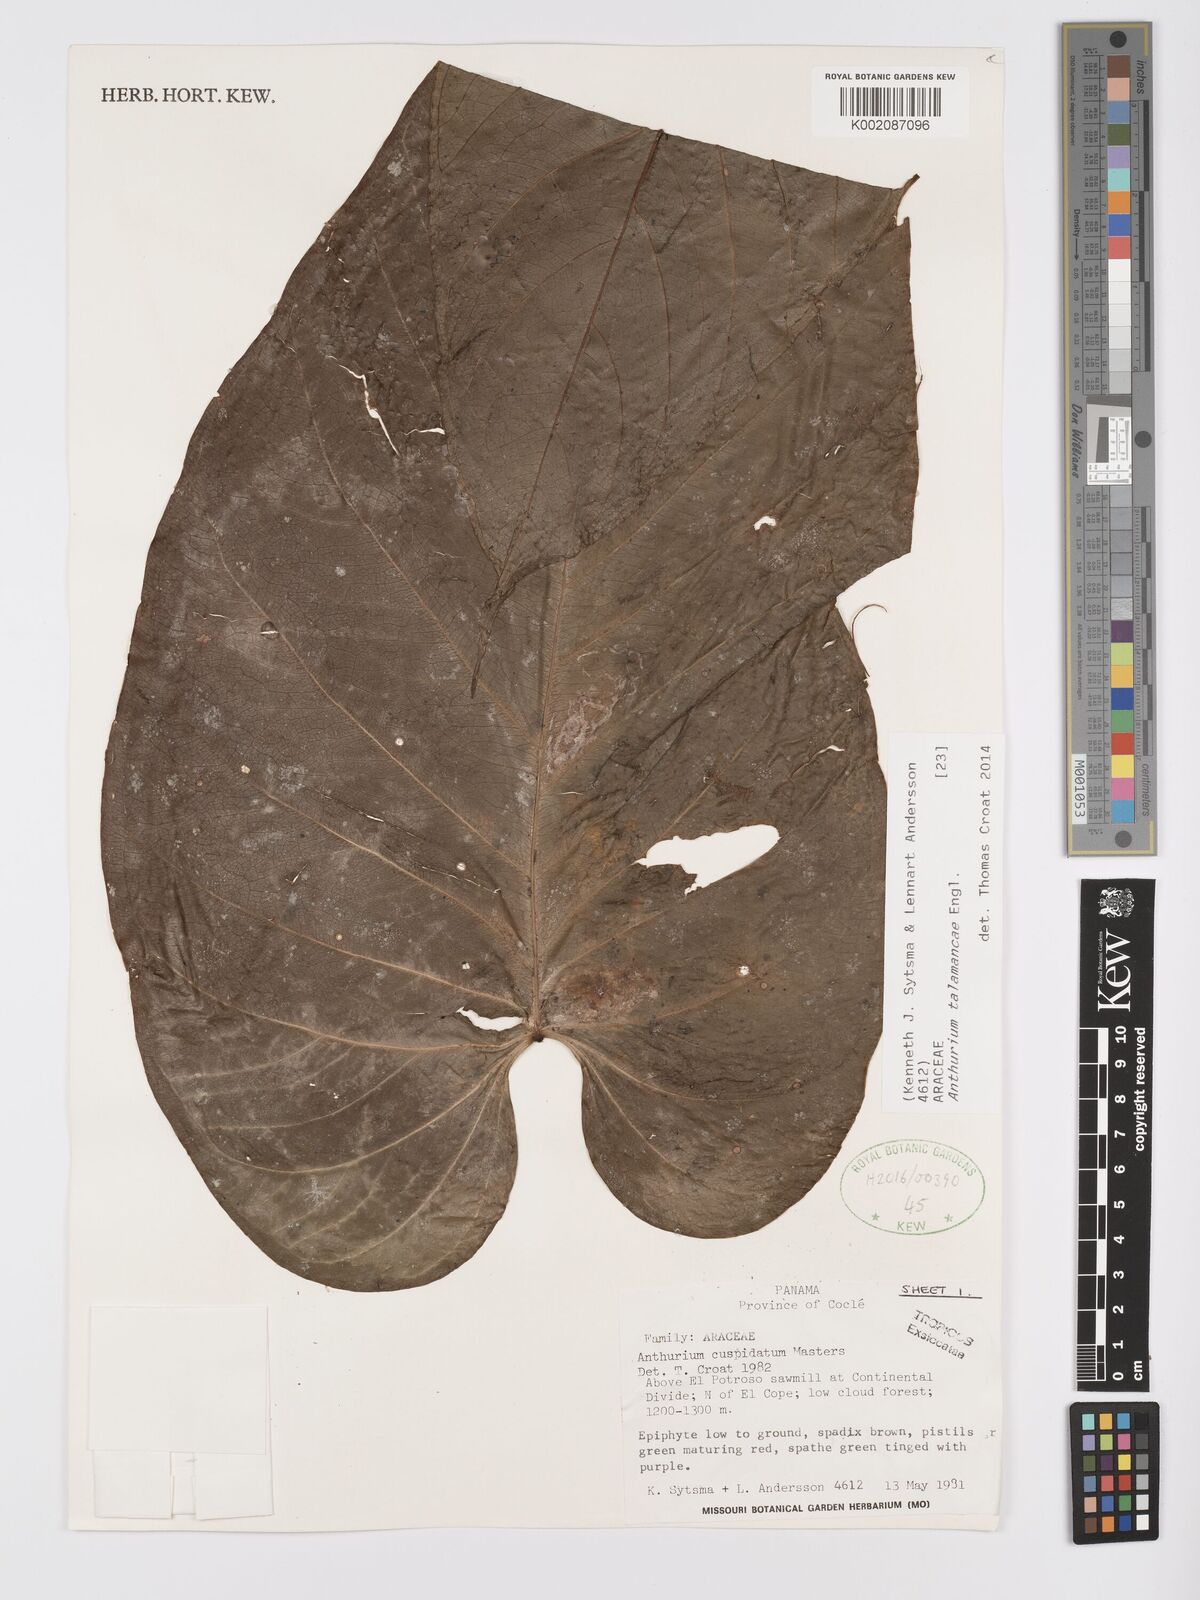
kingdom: Plantae
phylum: Tracheophyta
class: Liliopsida
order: Alismatales
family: Araceae
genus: Anthurium
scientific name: Anthurium talamancae
